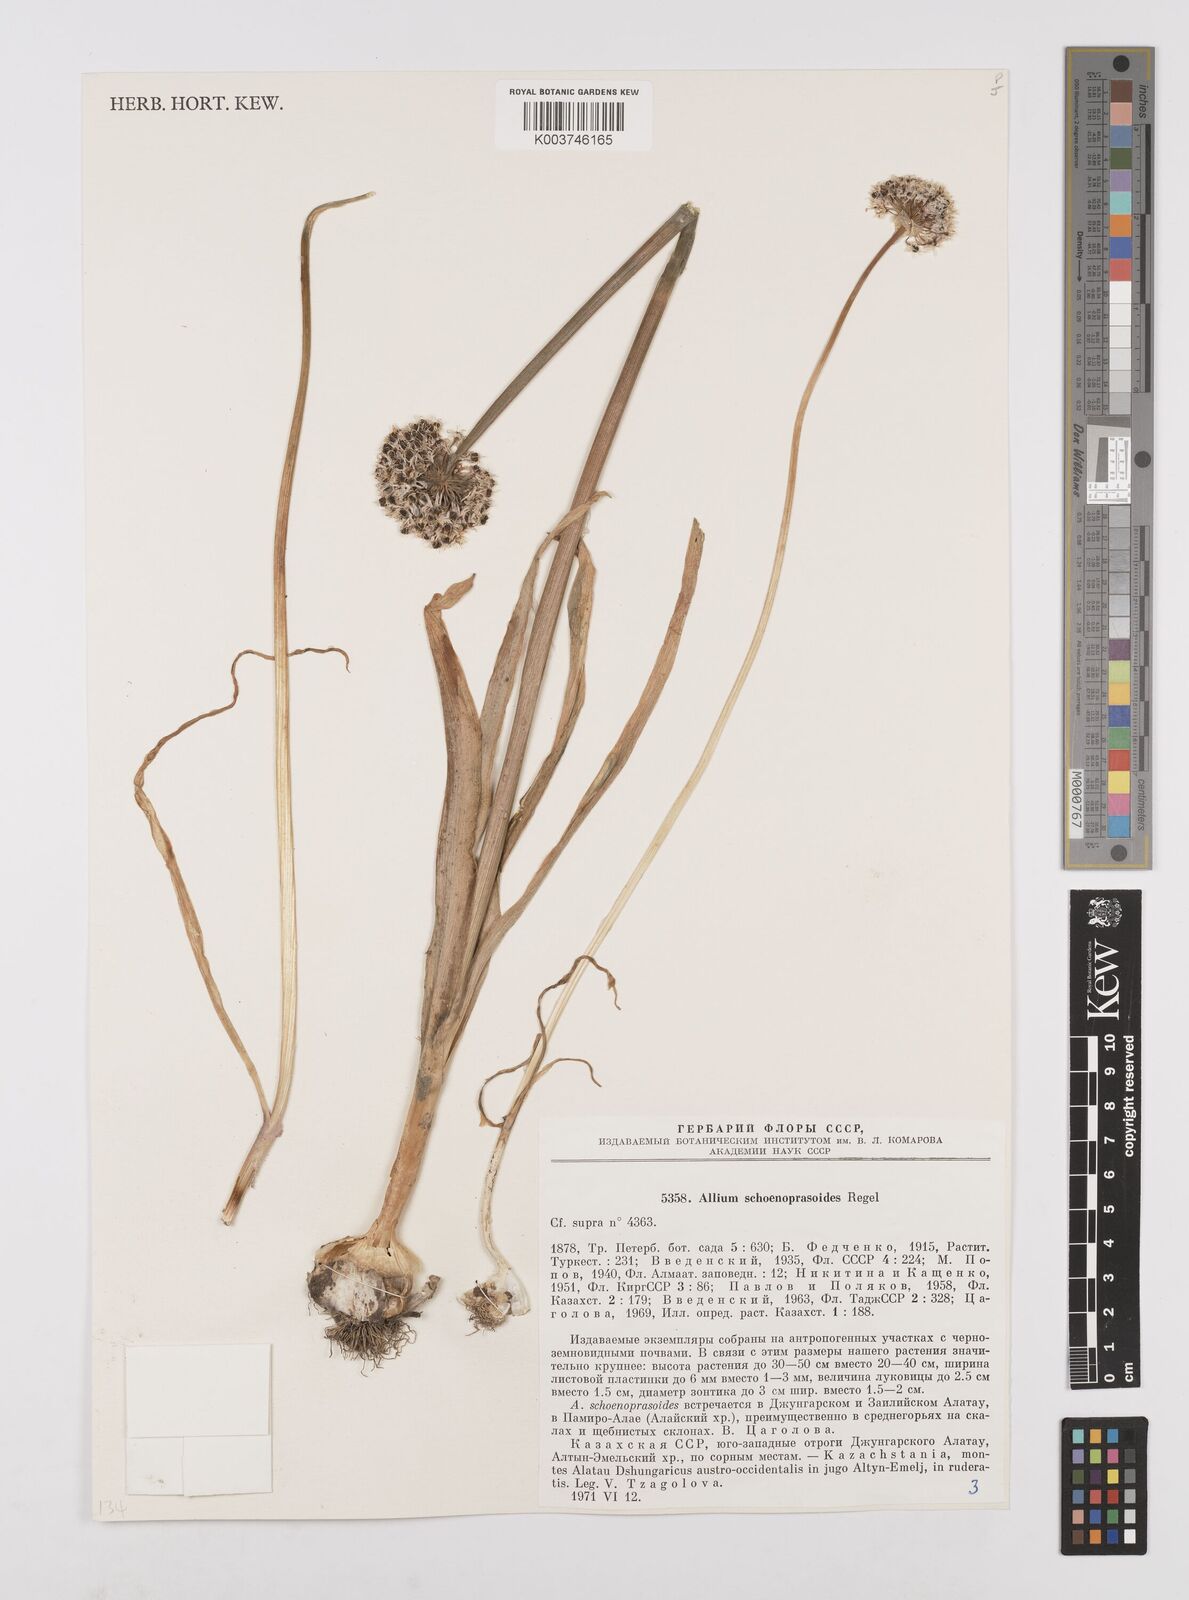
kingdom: Plantae
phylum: Tracheophyta
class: Liliopsida
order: Asparagales
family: Amaryllidaceae
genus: Allium
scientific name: Allium schoenoprasoides
